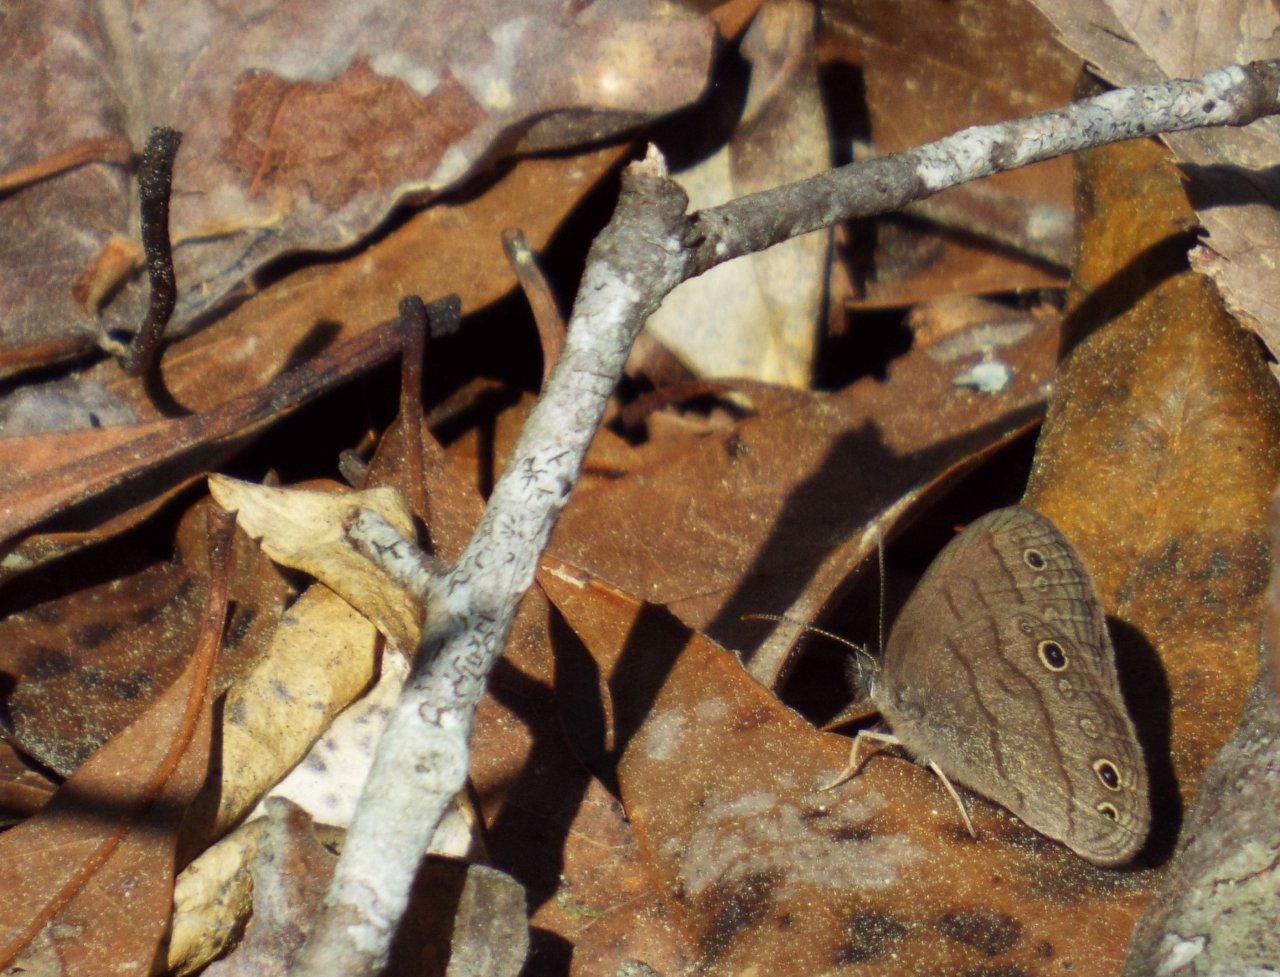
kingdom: Animalia
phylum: Arthropoda
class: Insecta
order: Lepidoptera
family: Nymphalidae
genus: Hermeuptychia
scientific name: Hermeuptychia hermes
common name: Carolina Satyr
